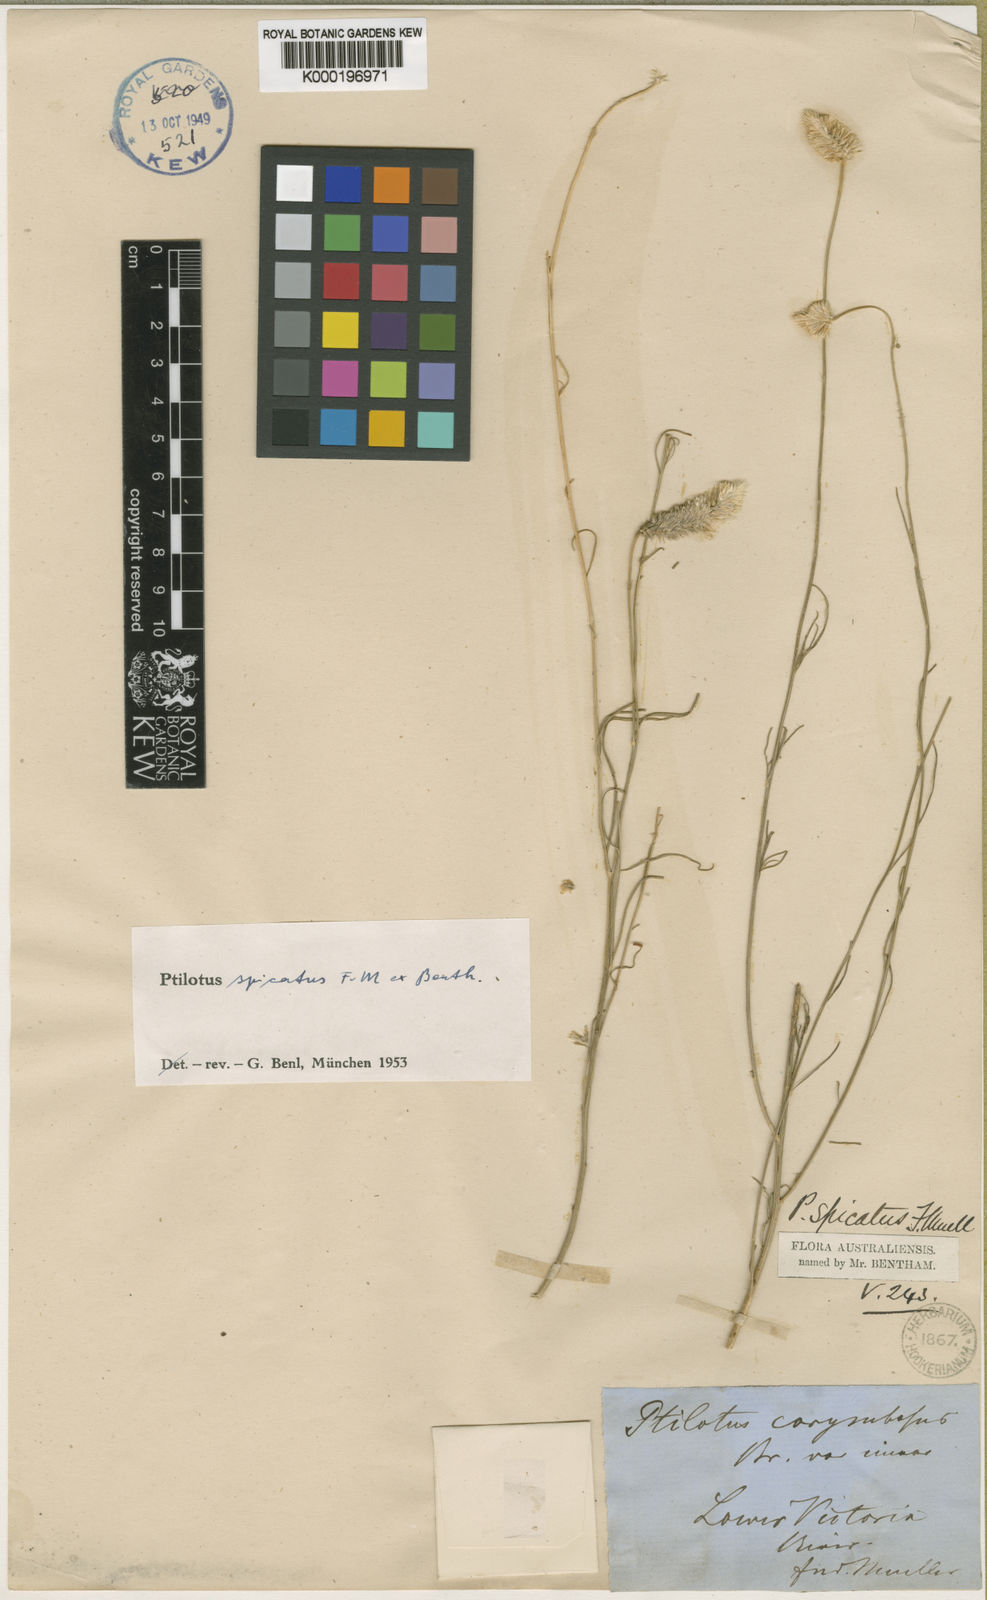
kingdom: Plantae
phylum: Tracheophyta
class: Magnoliopsida
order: Caryophyllales
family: Amaranthaceae
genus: Ptilotus
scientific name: Ptilotus spicatus
